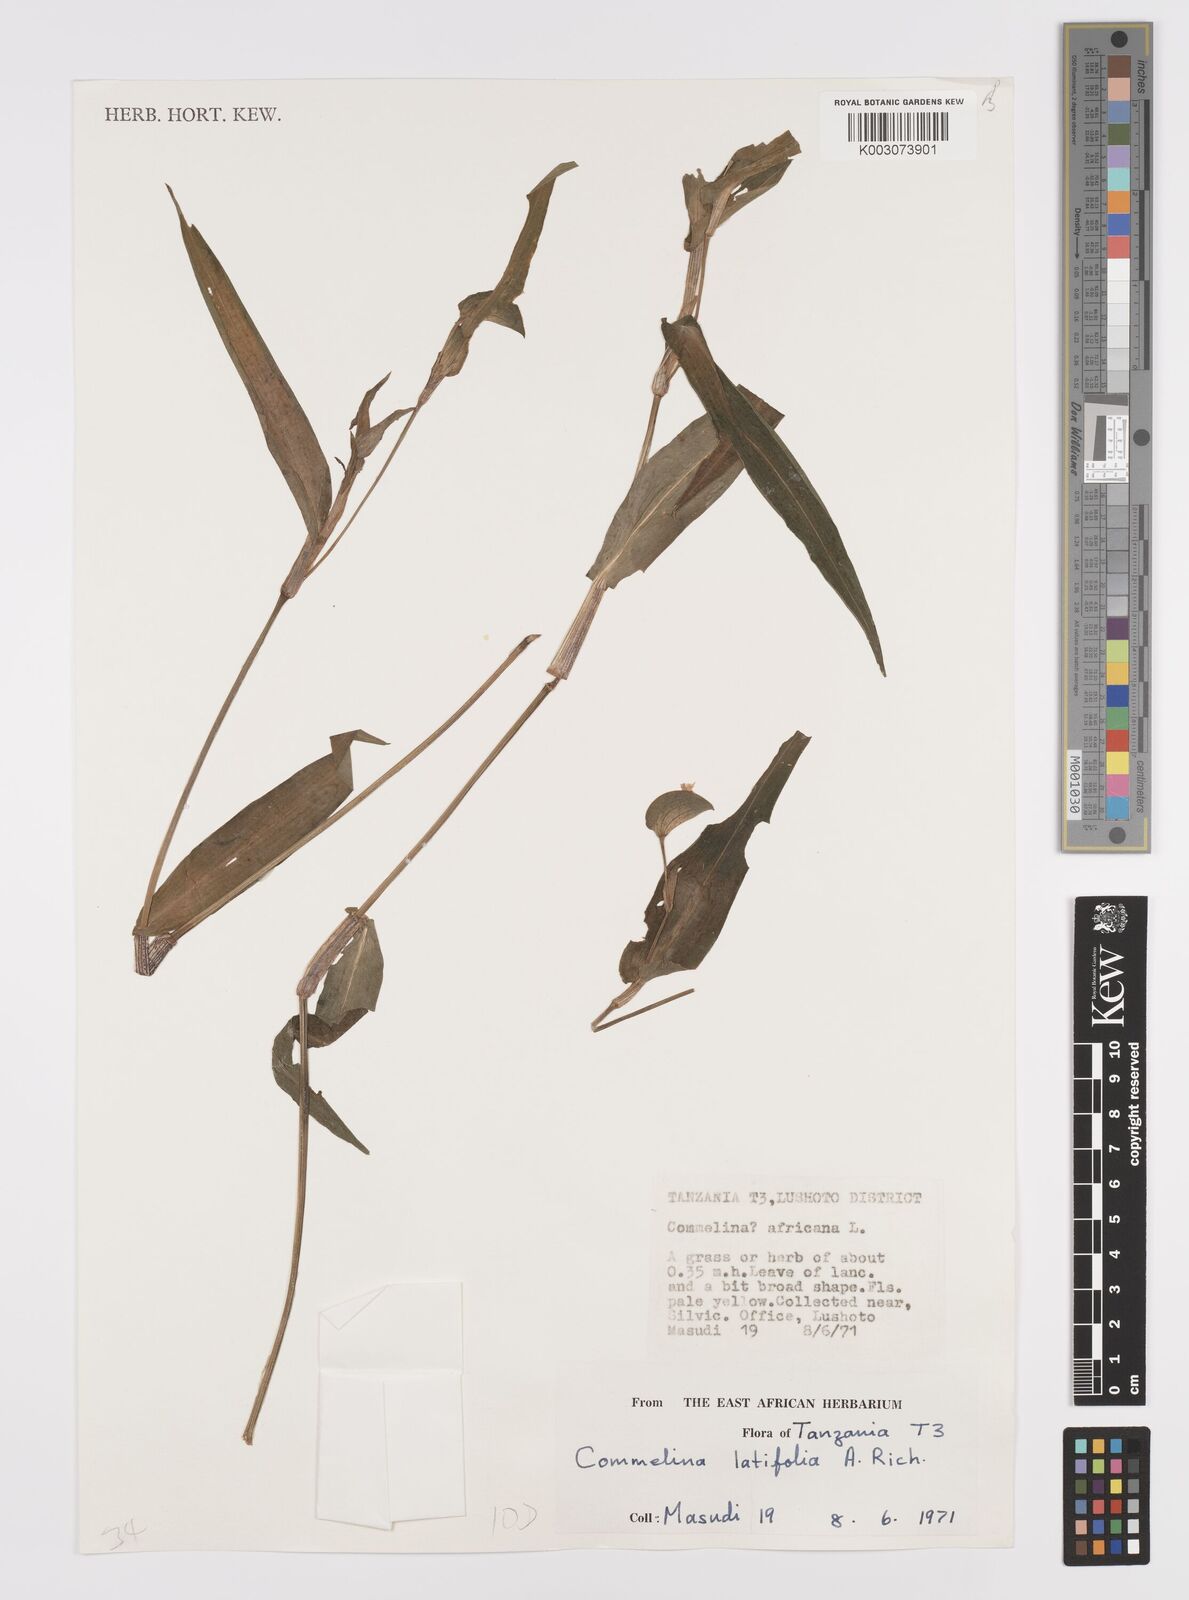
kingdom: Plantae
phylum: Tracheophyta
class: Liliopsida
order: Commelinales
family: Commelinaceae
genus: Commelina
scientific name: Commelina latifolia
